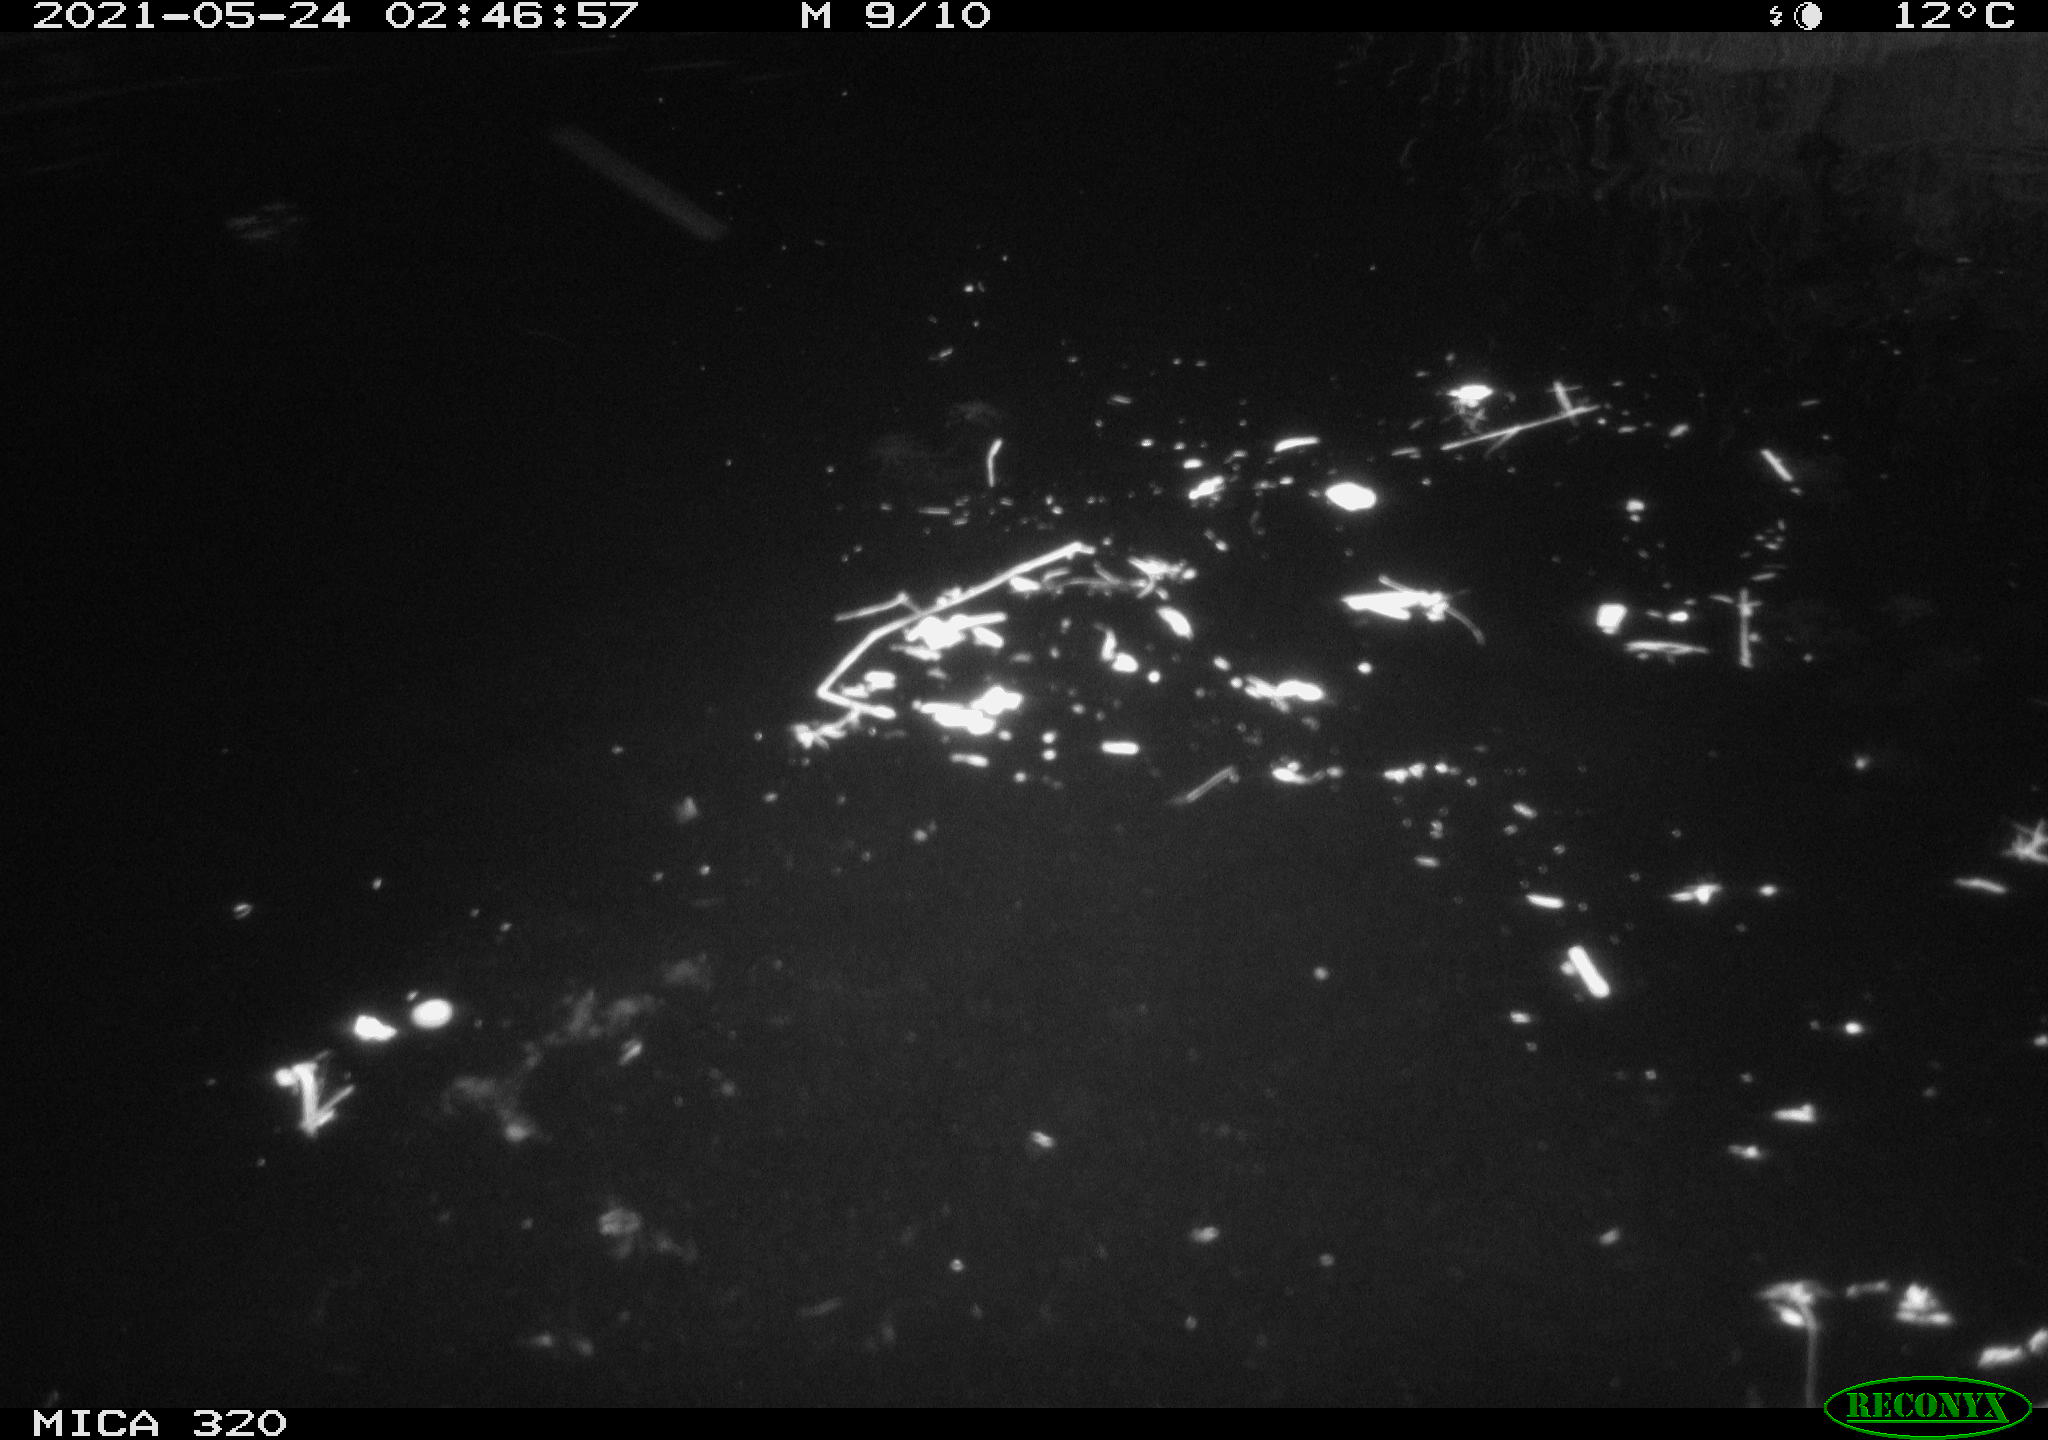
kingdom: Animalia
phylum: Chordata
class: Aves
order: Anseriformes
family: Anatidae
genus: Anas
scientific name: Anas platyrhynchos
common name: Mallard
